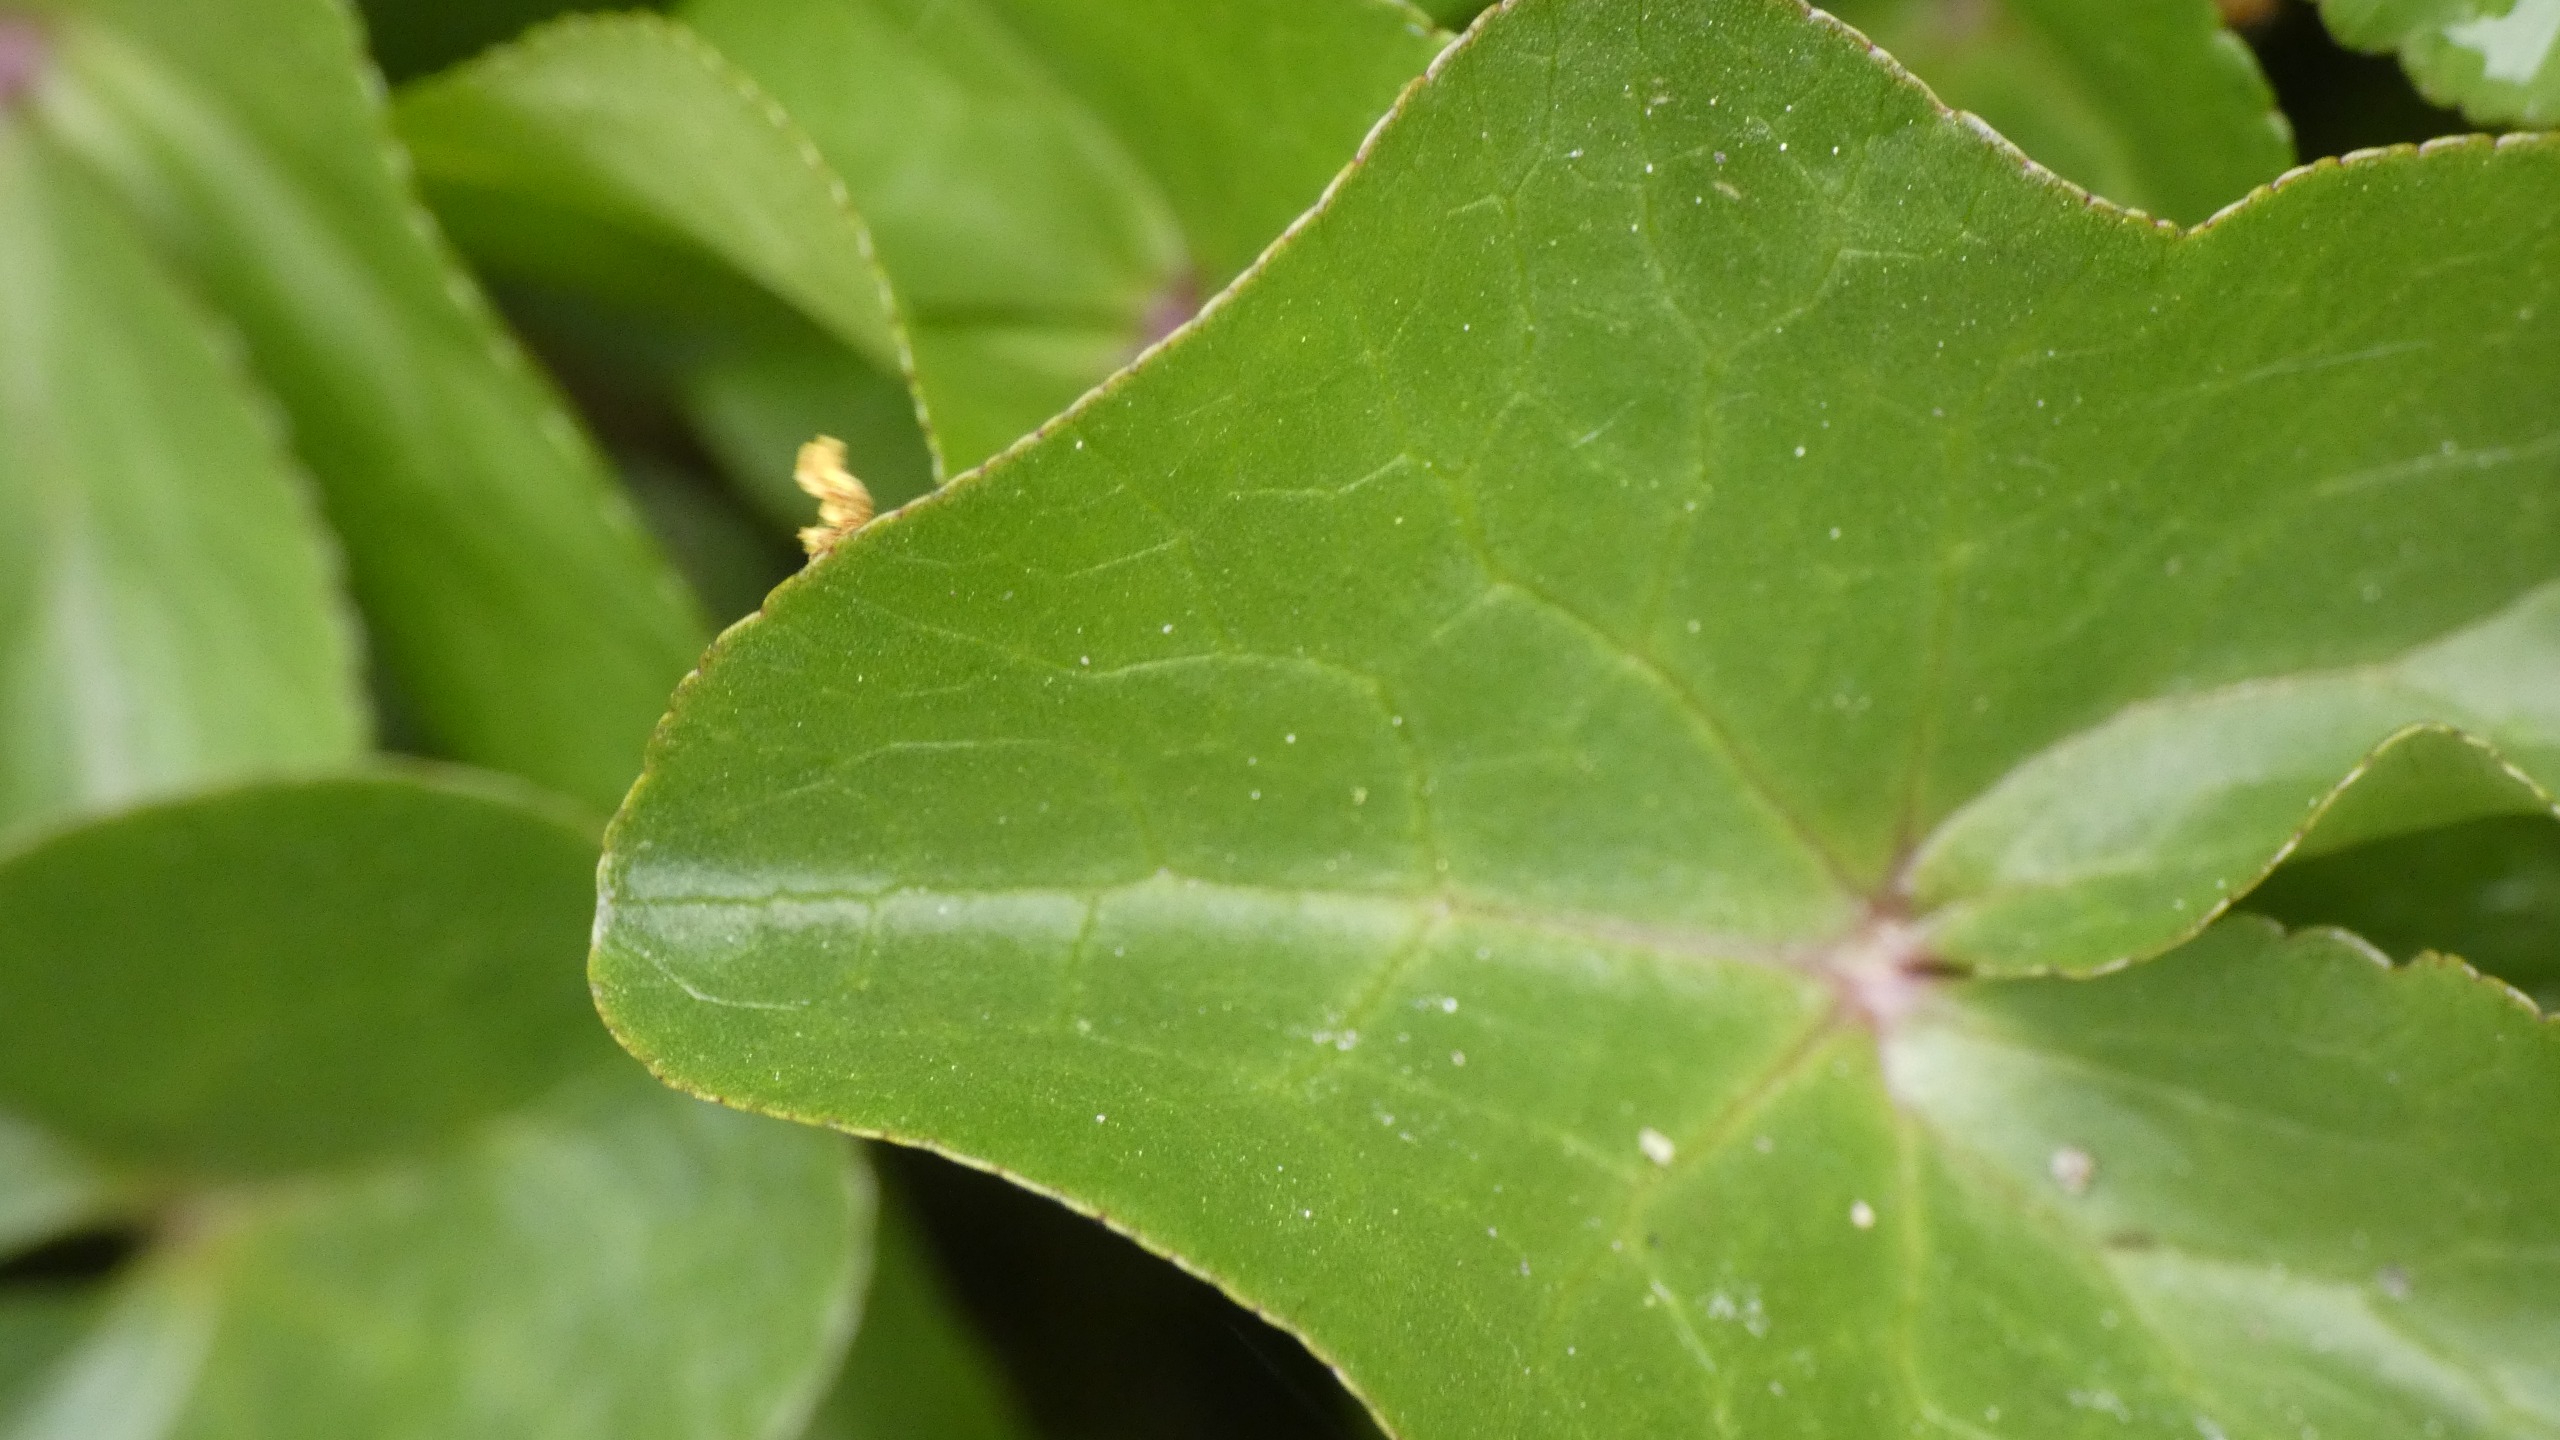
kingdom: Plantae
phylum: Tracheophyta
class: Magnoliopsida
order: Ranunculales
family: Ranunculaceae
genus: Caltha
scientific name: Caltha palustris
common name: Eng-kabbeleje
